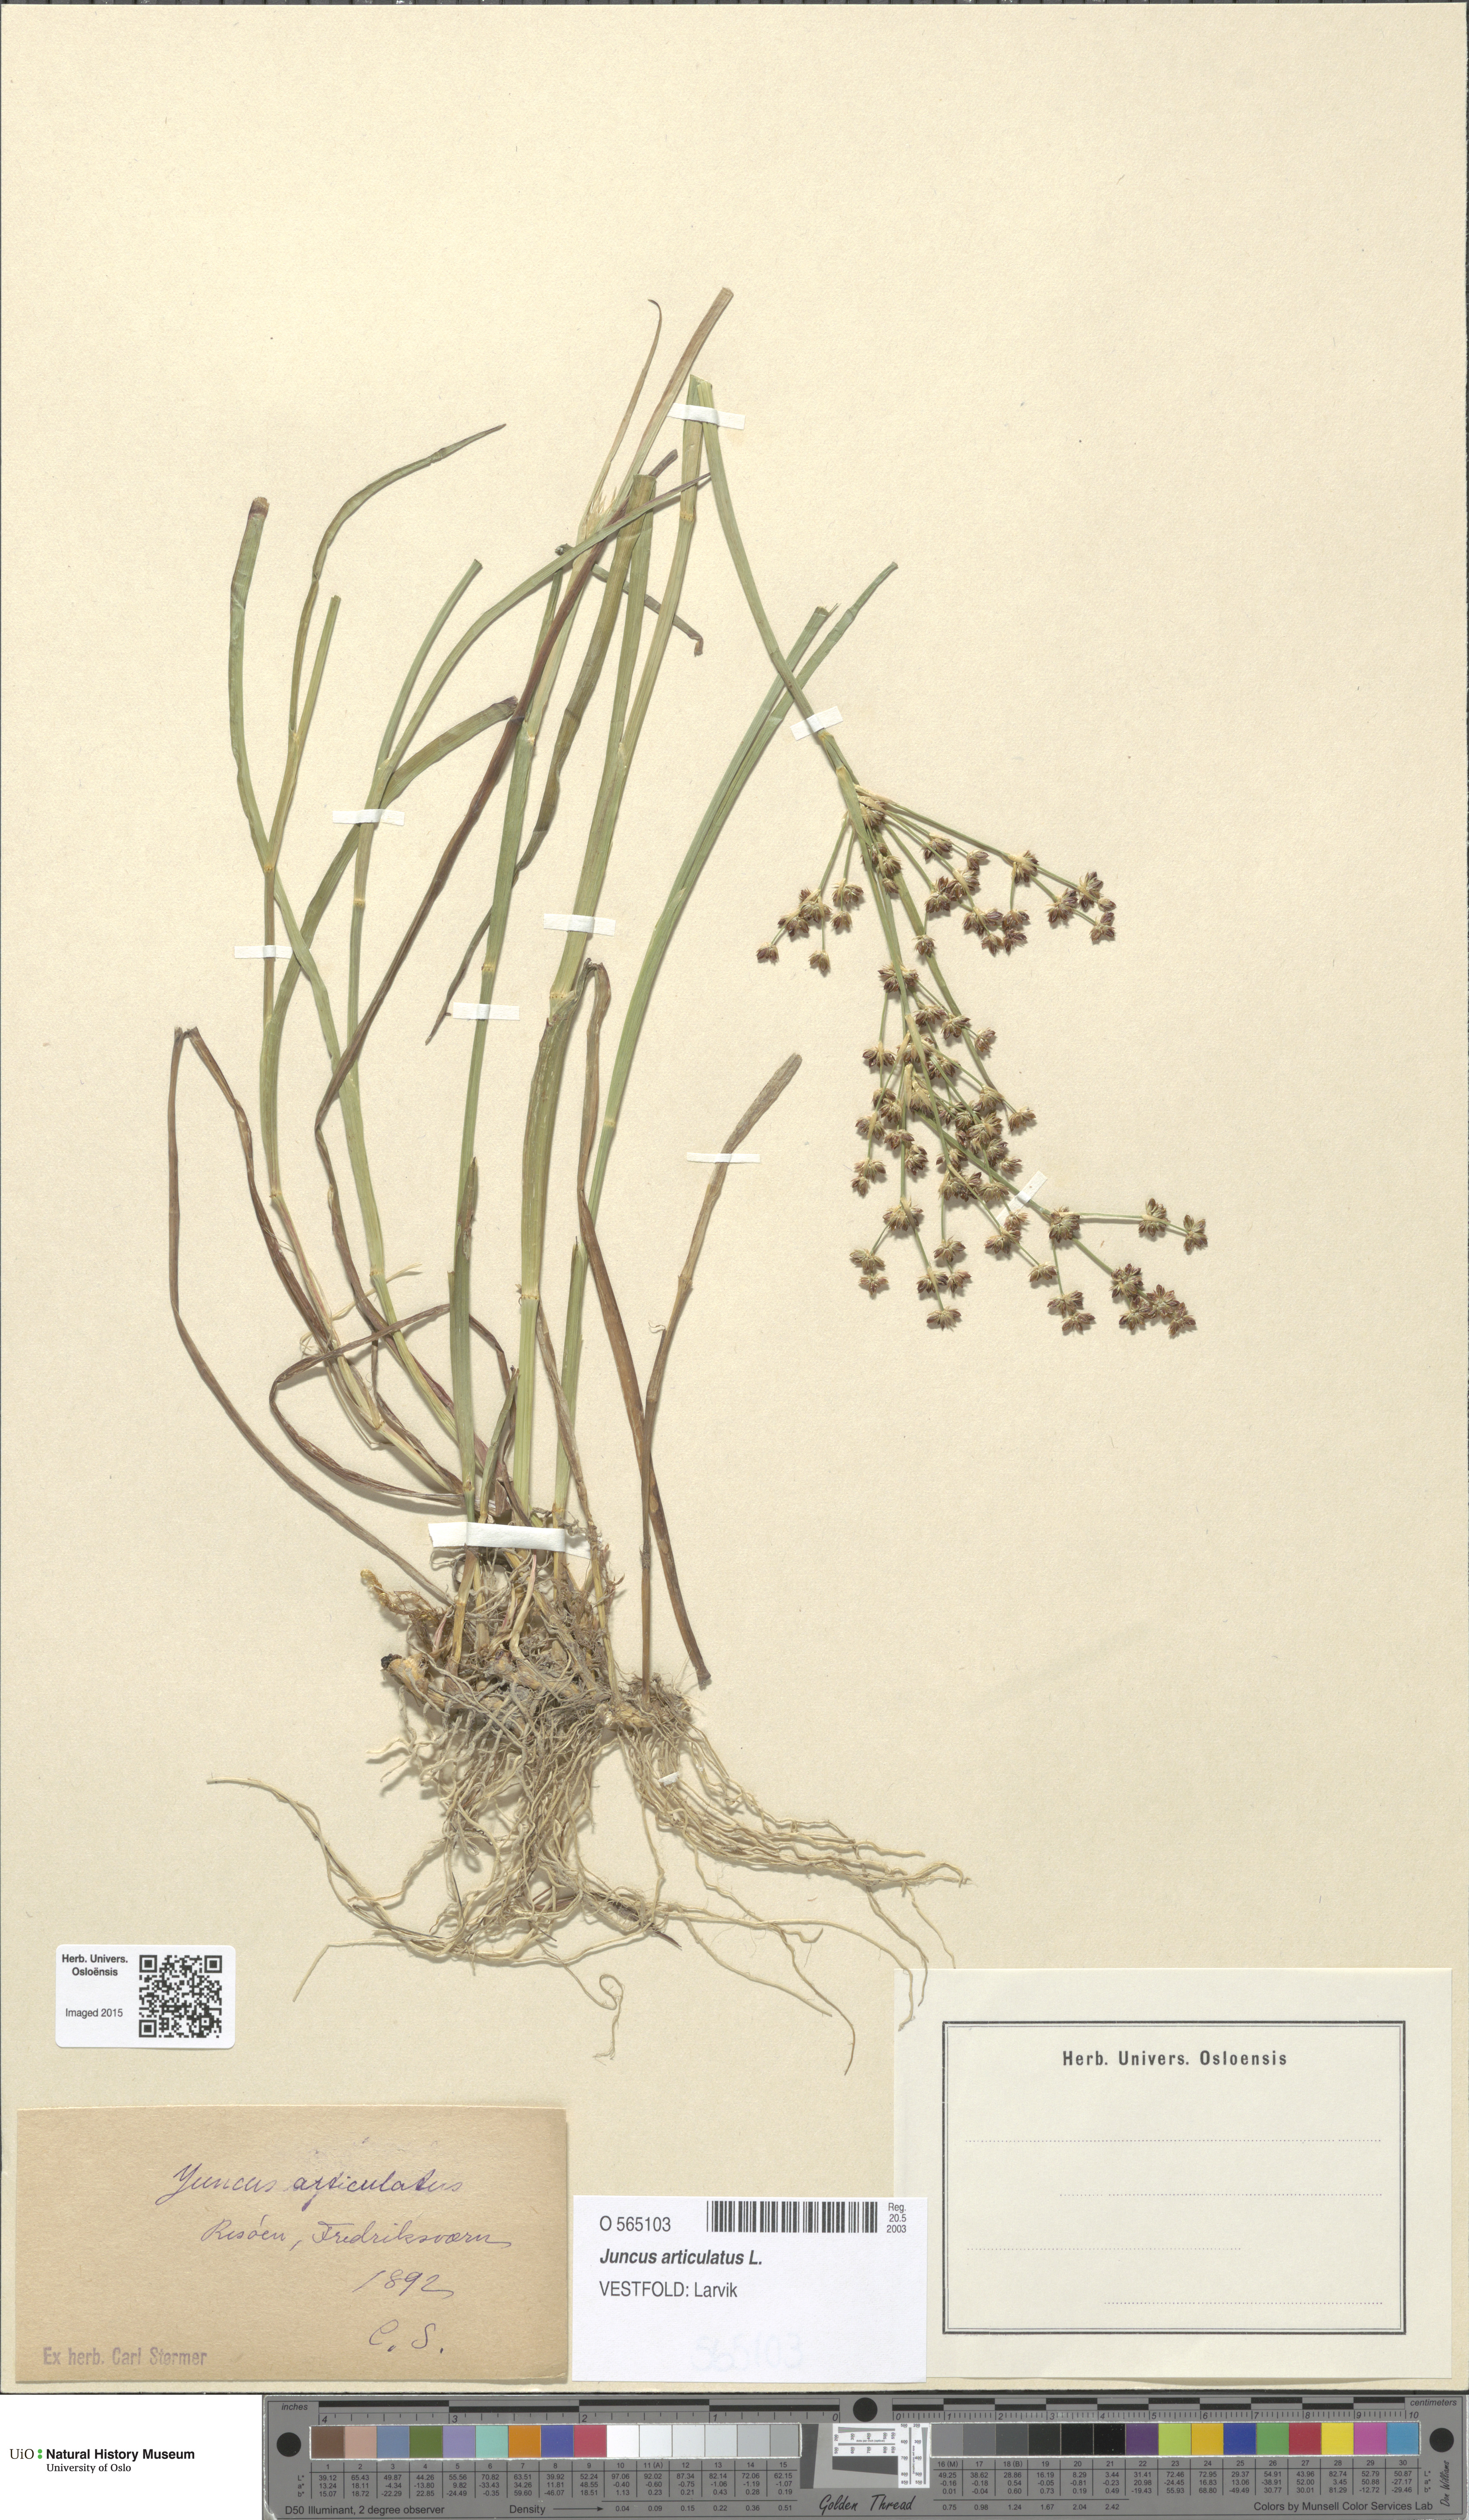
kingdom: Plantae
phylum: Tracheophyta
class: Liliopsida
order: Poales
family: Juncaceae
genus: Juncus
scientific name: Juncus articulatus
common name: Jointed rush
